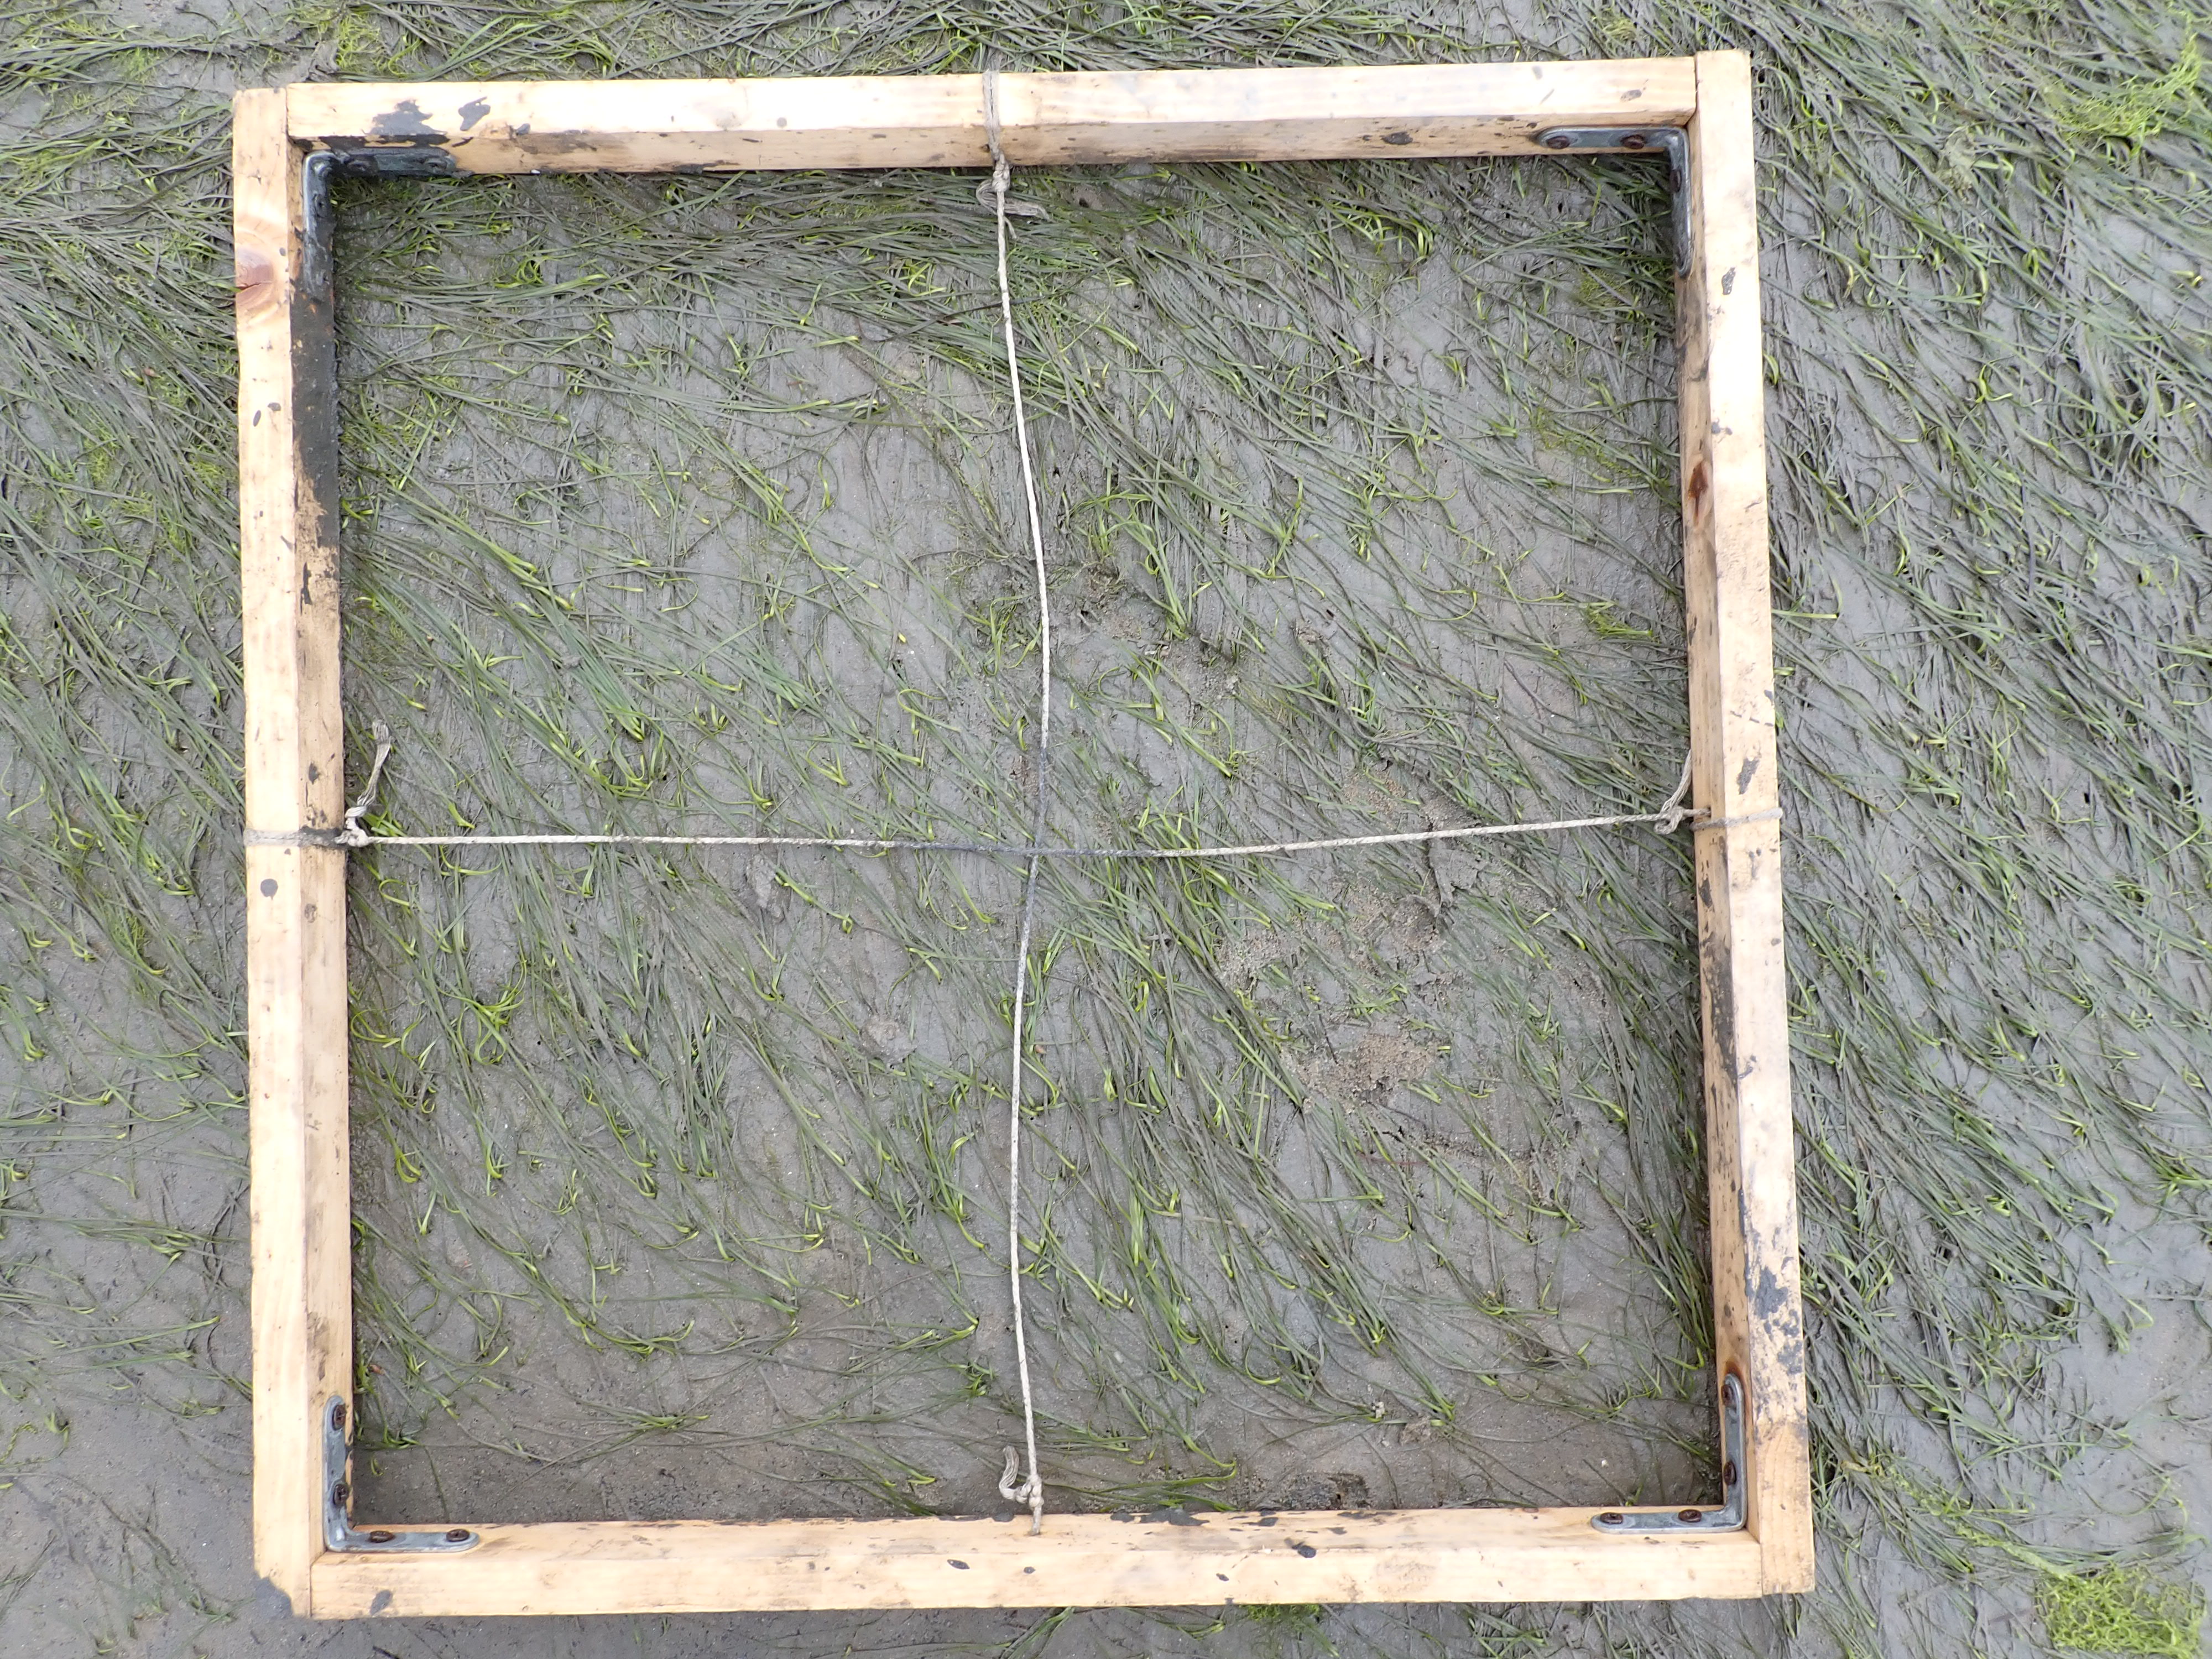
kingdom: Plantae
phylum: Tracheophyta
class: Liliopsida
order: Alismatales
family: Zosteraceae
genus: Zostera
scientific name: Zostera noltii
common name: Dwarf eelgrass
